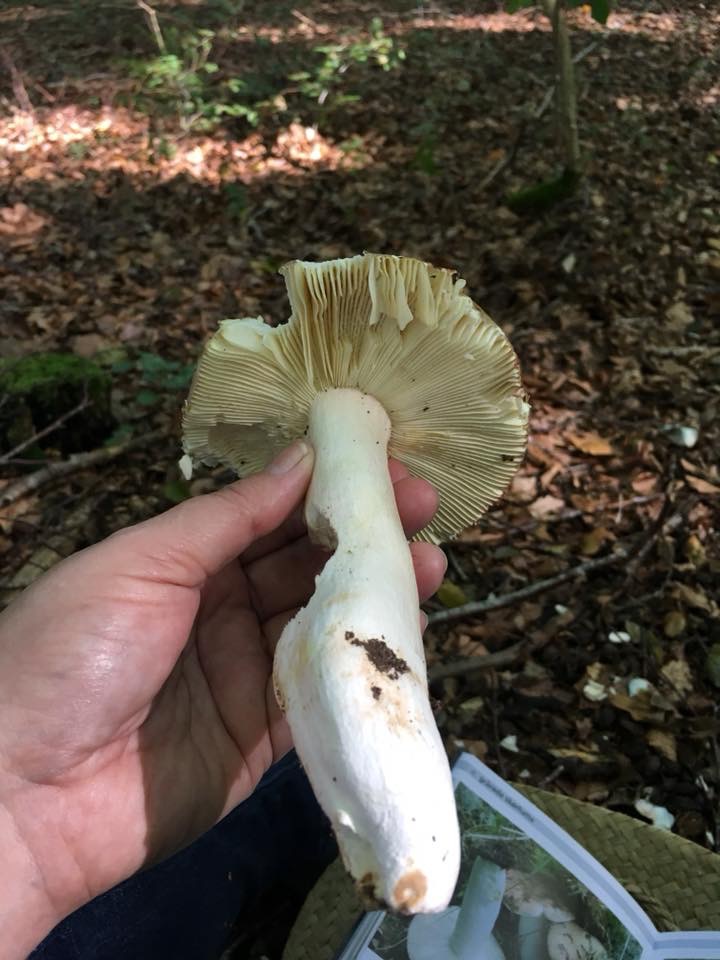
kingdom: Fungi
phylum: Basidiomycota
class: Agaricomycetes
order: Russulales
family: Russulaceae
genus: Russula
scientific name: Russula olivacea
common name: stor skørhat
